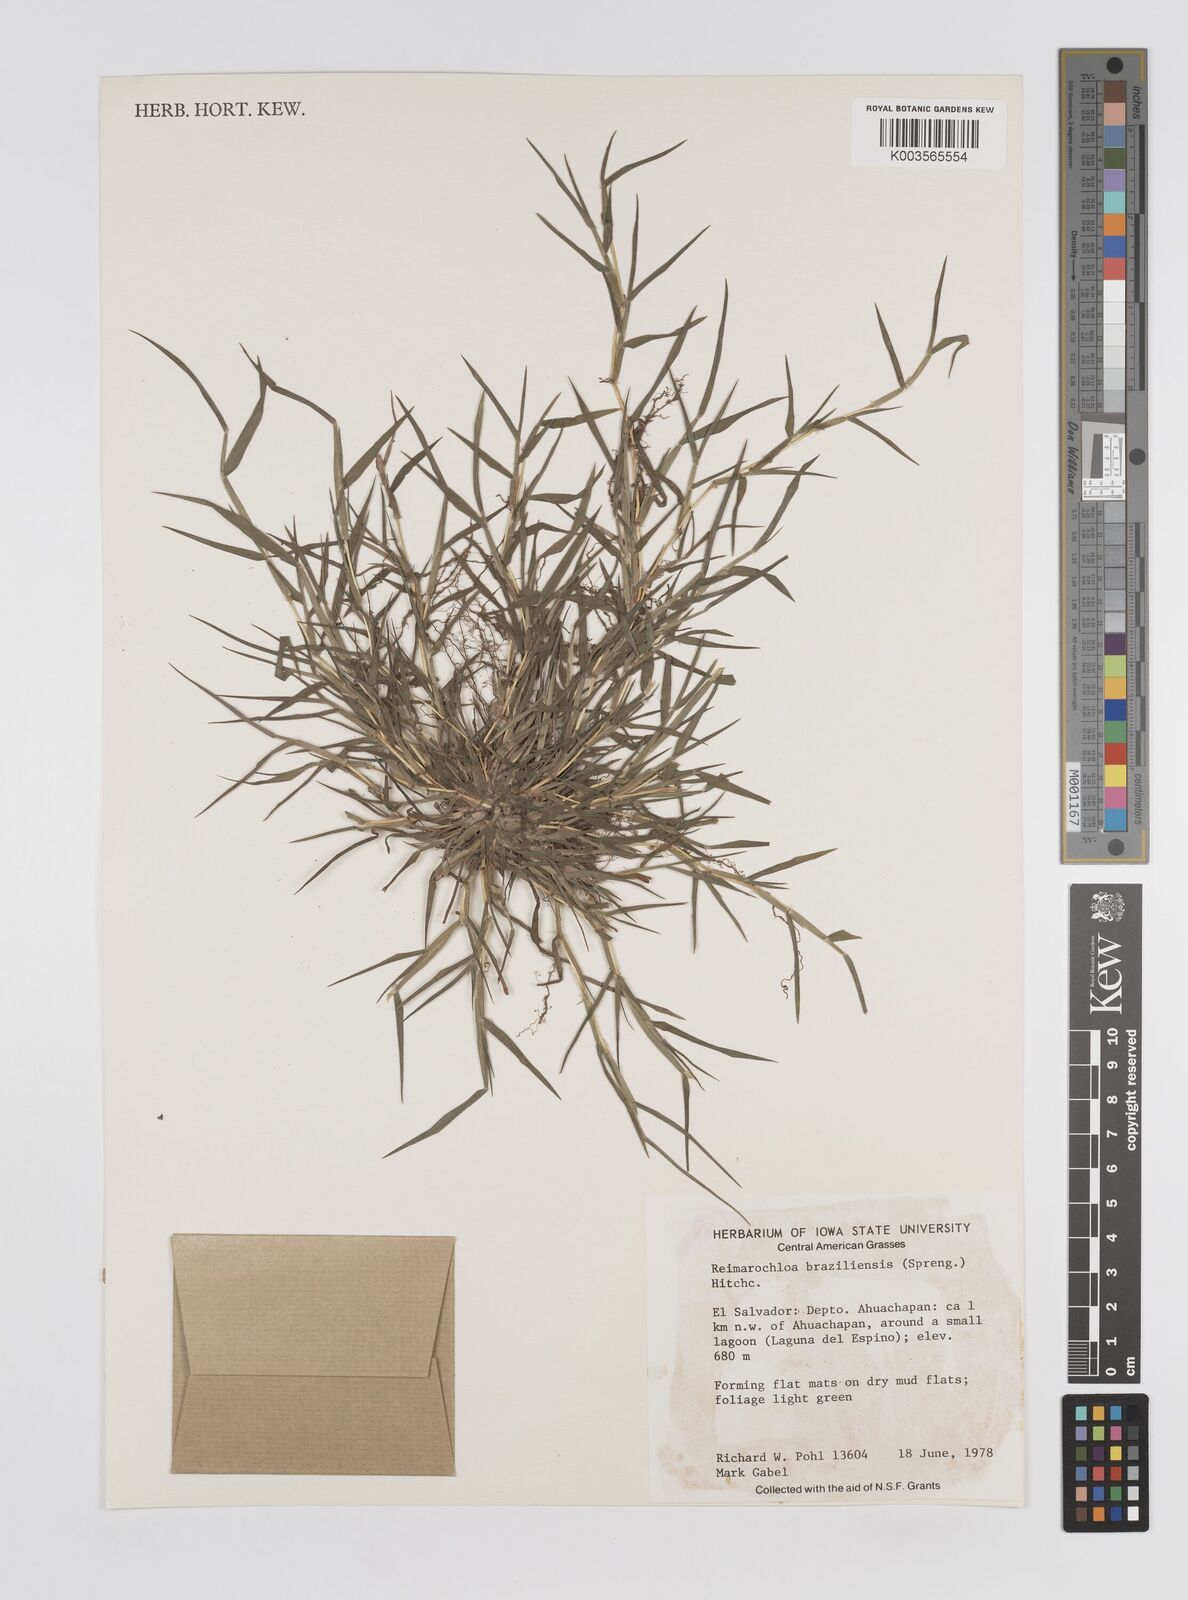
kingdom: Plantae
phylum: Tracheophyta
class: Liliopsida
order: Poales
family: Poaceae
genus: Paspalum
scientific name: Paspalum stagnophilum
